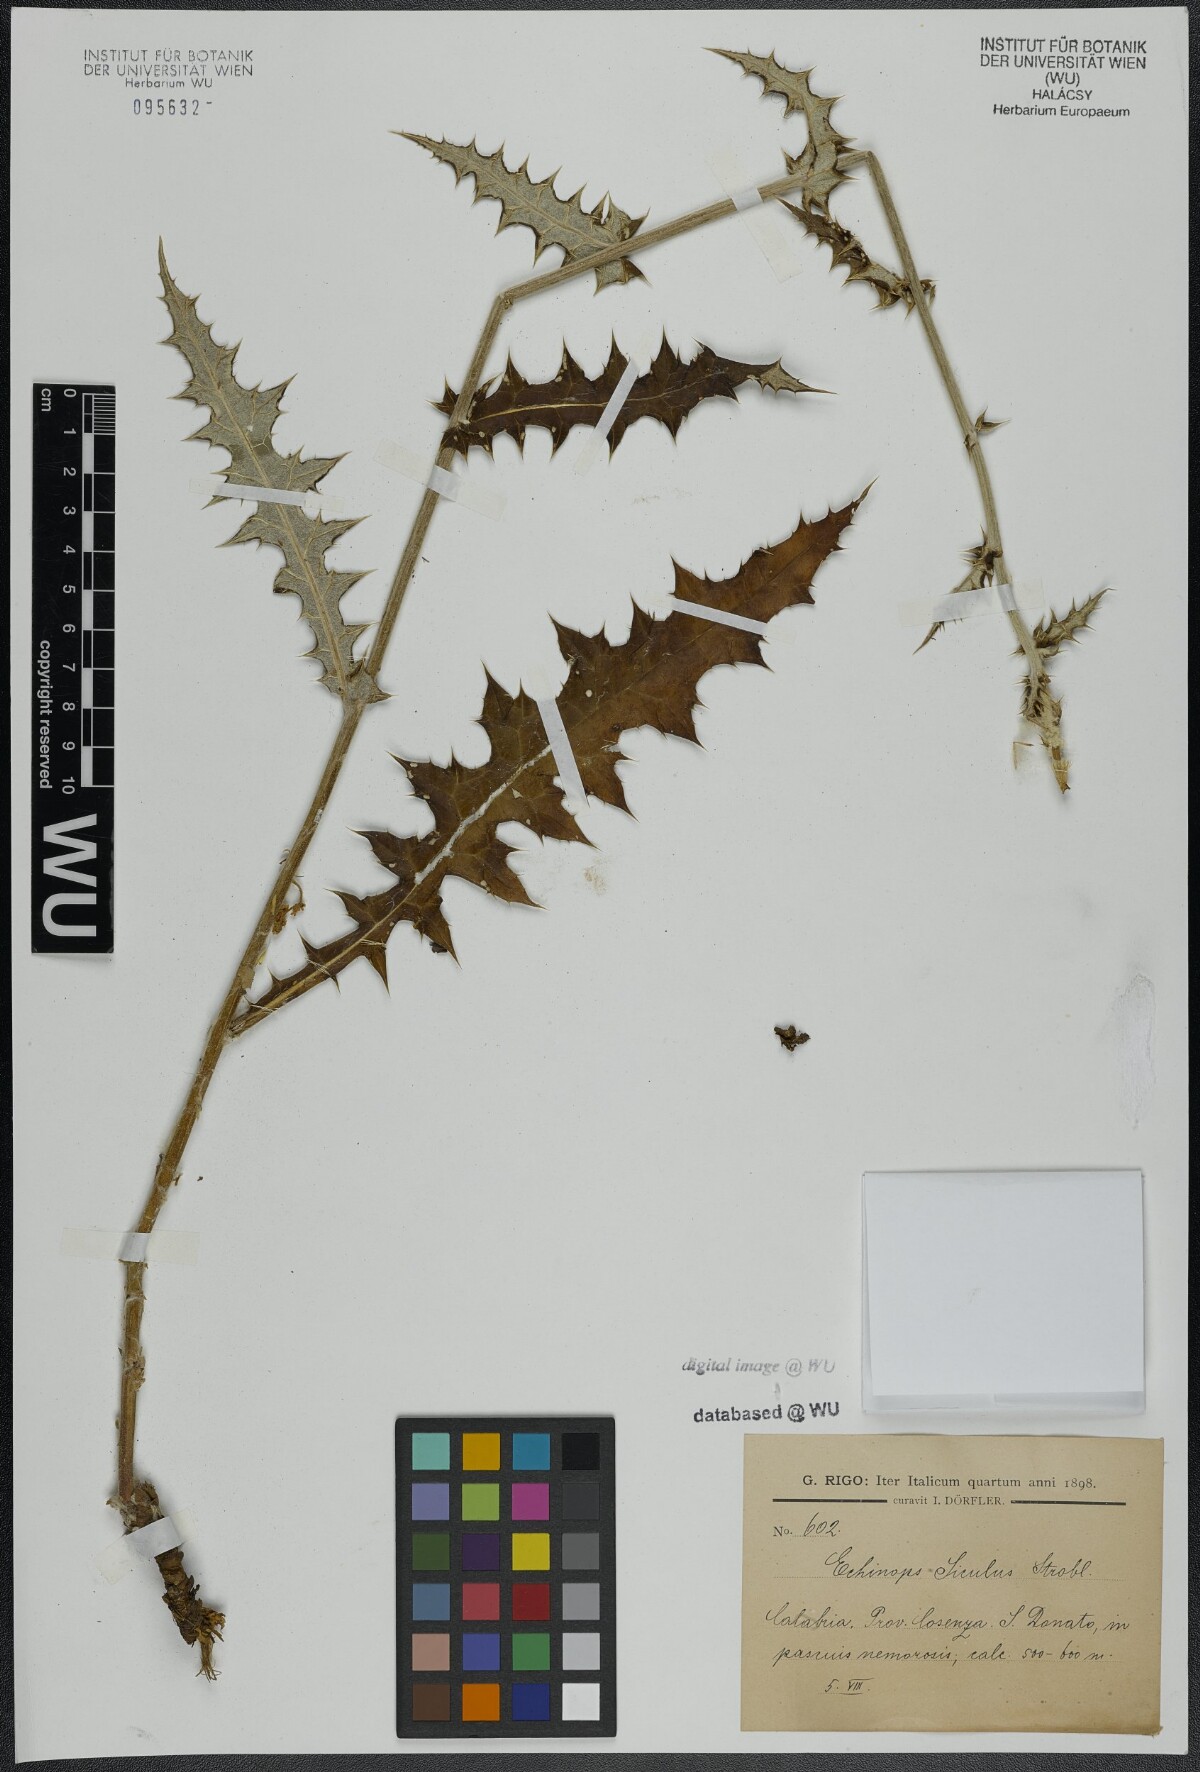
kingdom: Plantae
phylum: Tracheophyta
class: Magnoliopsida
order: Asterales
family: Asteraceae
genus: Echinops
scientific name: Echinops ritro
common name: Globe thistle
